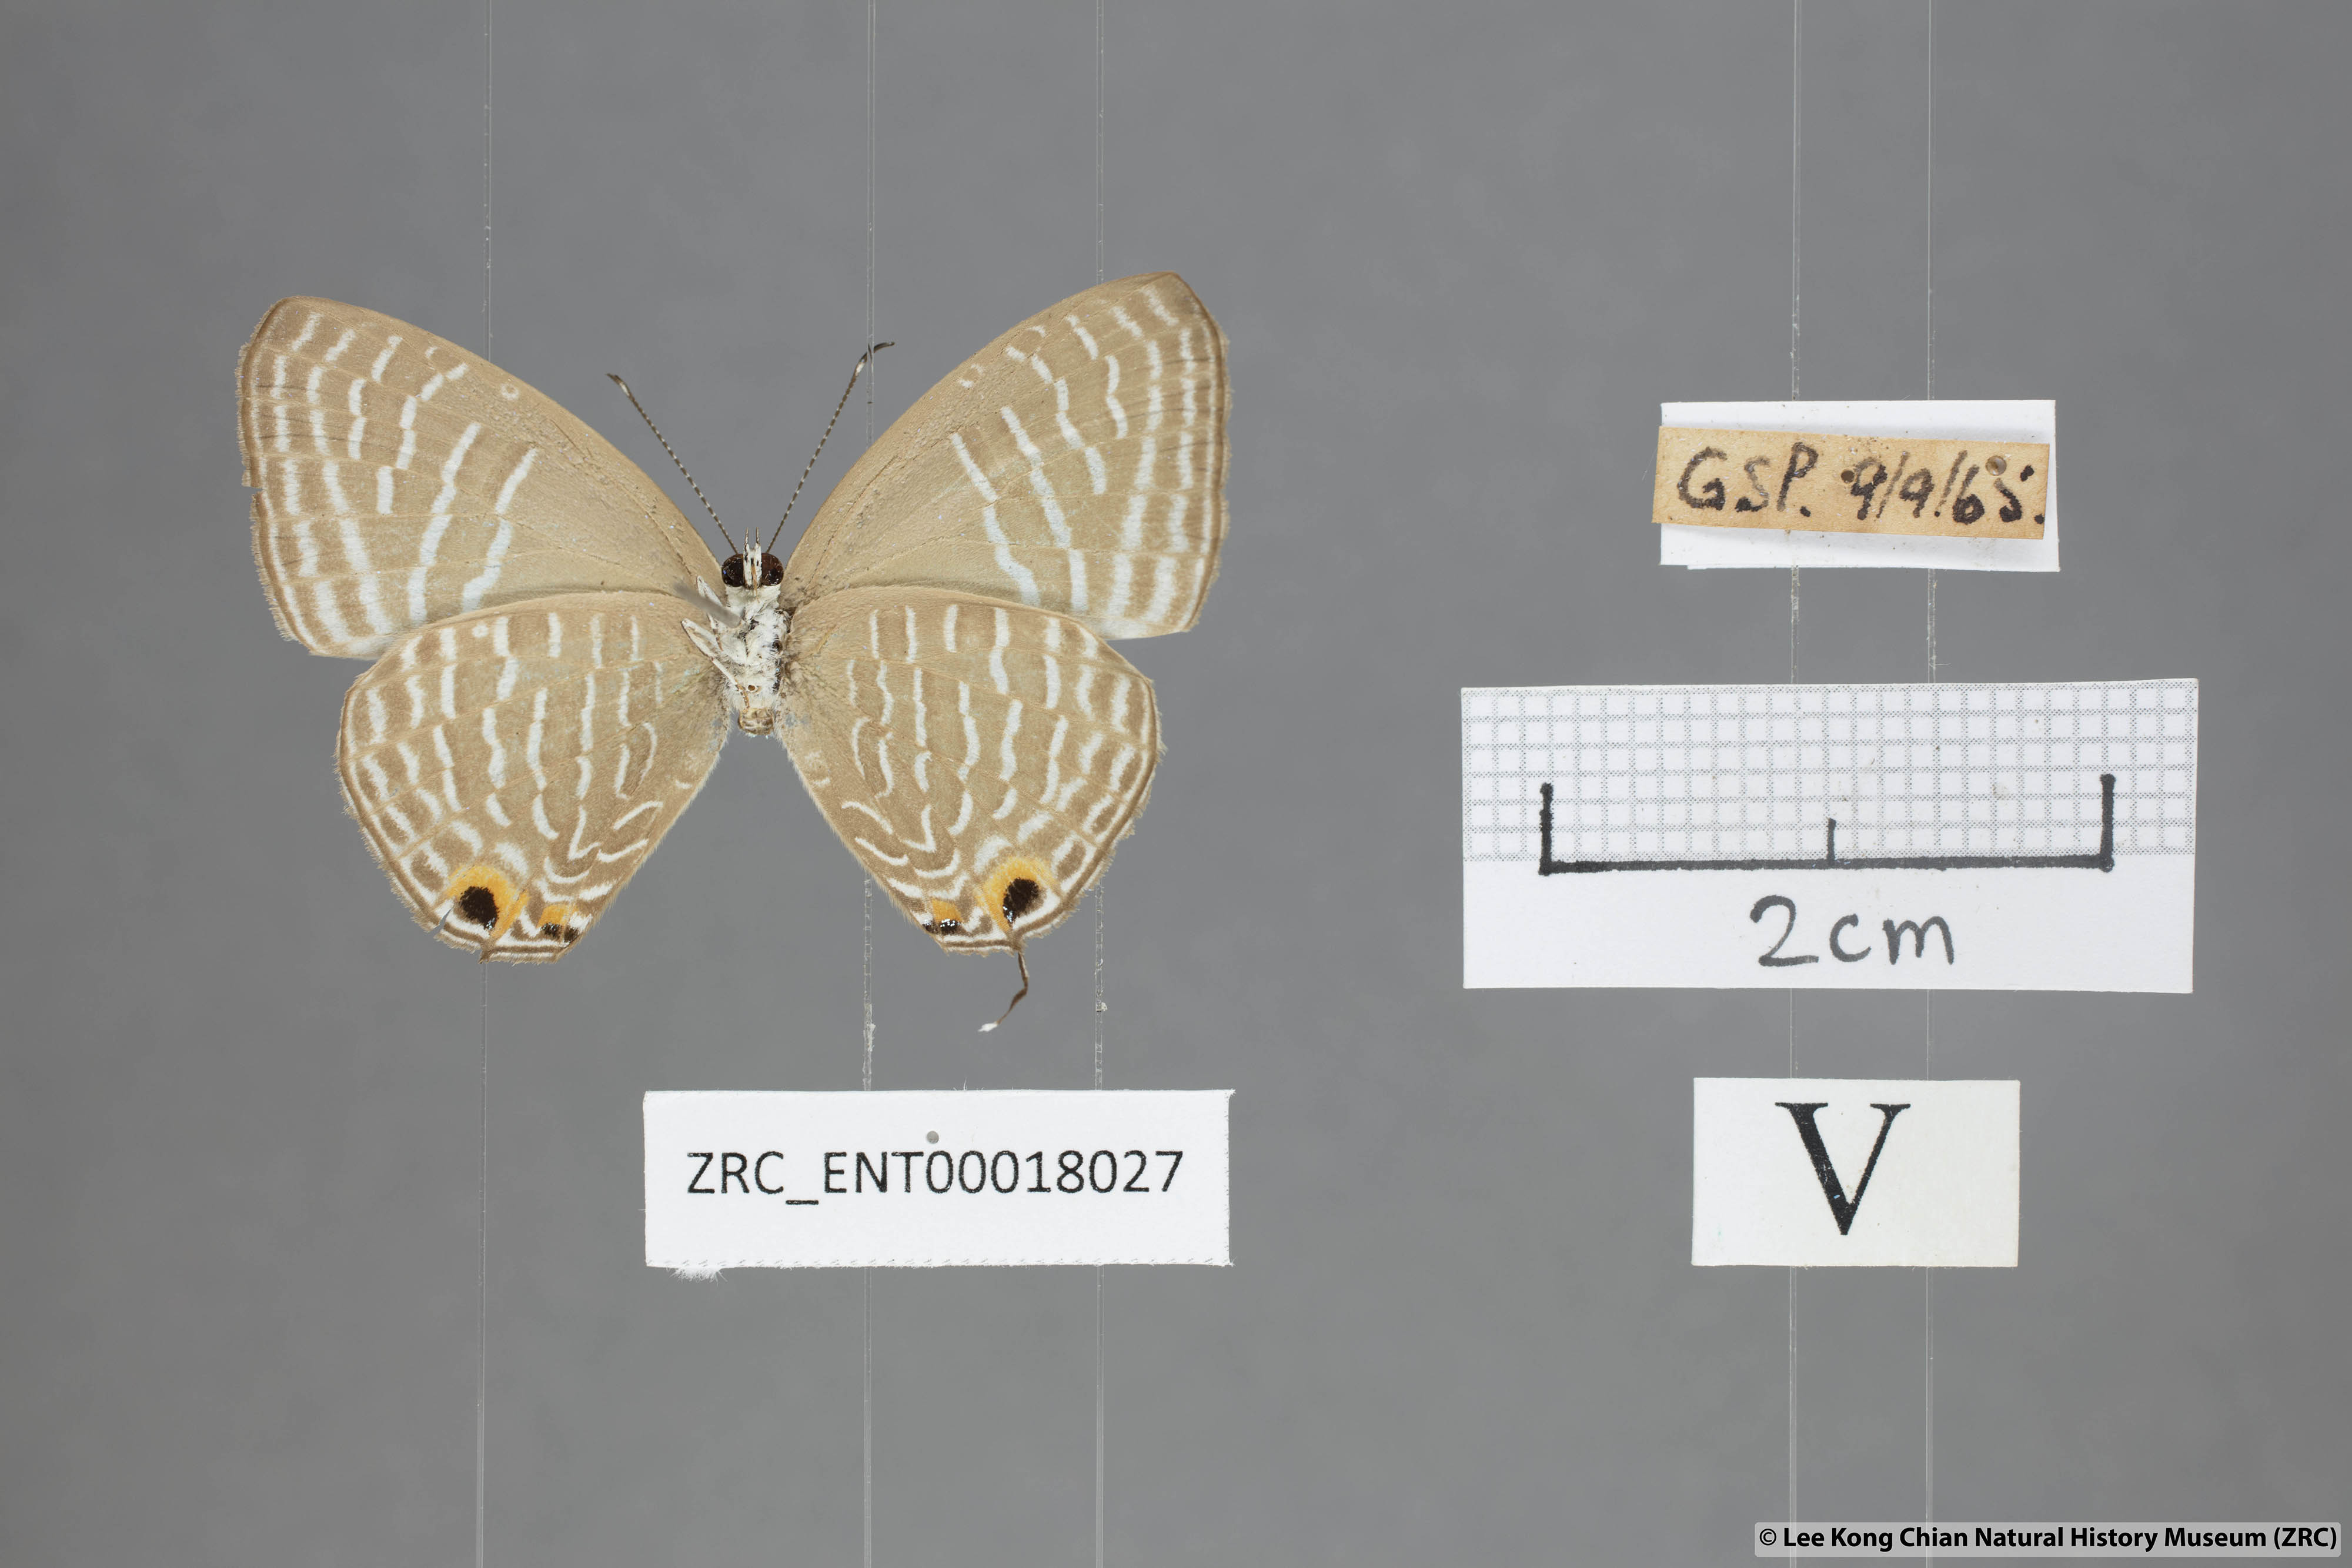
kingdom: Animalia
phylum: Arthropoda
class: Insecta
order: Lepidoptera
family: Lycaenidae
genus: Jamides
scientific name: Jamides alecto
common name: Metallic cerulean
